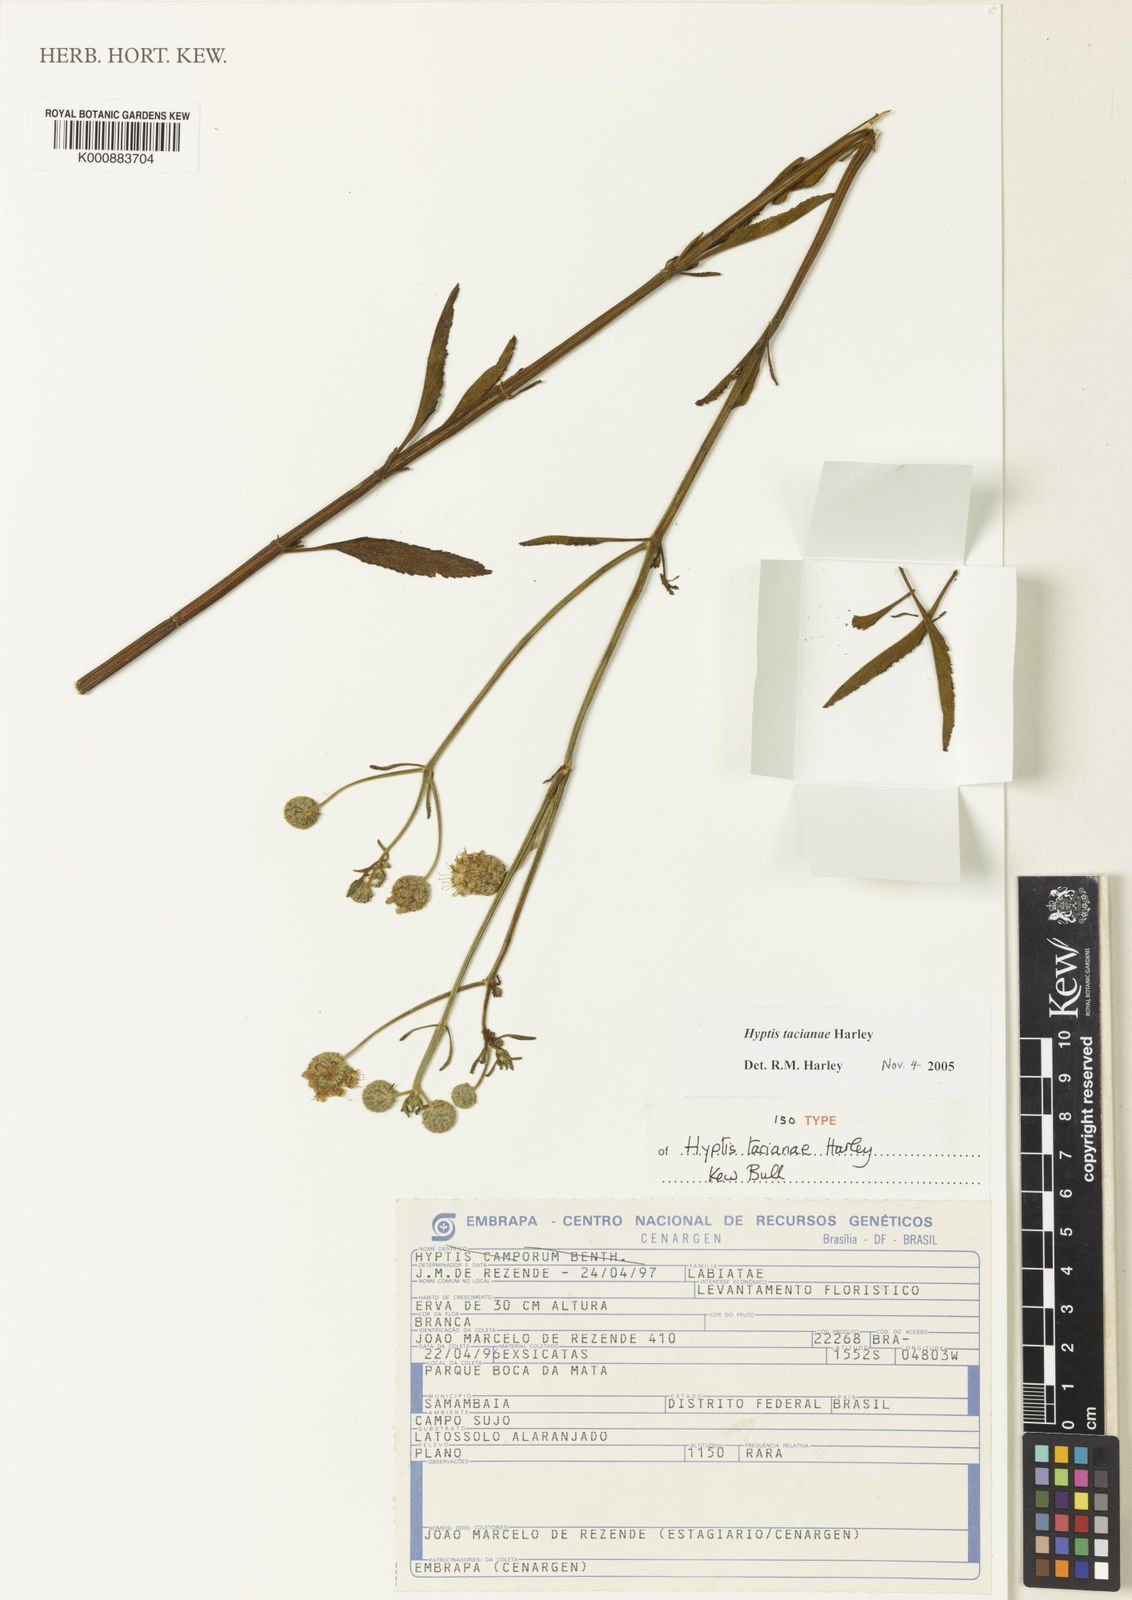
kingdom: Plantae
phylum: Tracheophyta
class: Magnoliopsida
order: Lamiales
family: Lamiaceae
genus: Cyanocephalus
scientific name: Cyanocephalus tacianae
